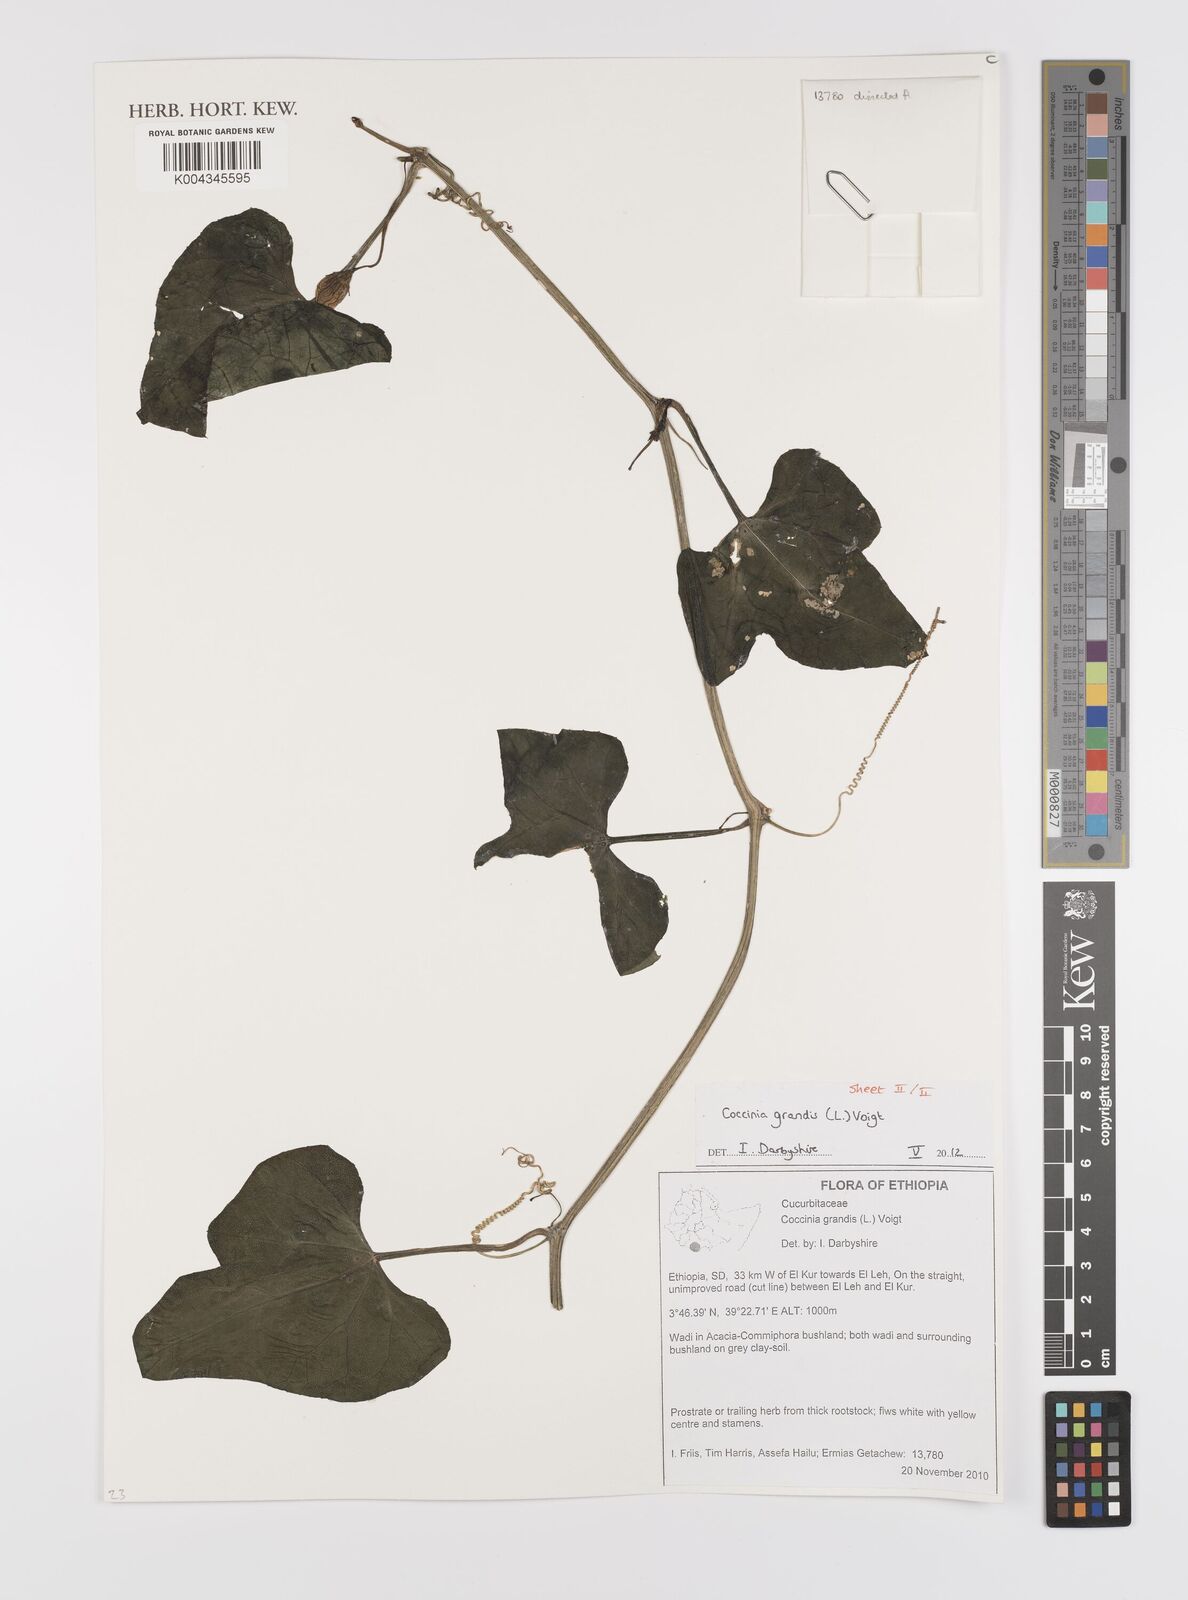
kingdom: Plantae
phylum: Tracheophyta
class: Magnoliopsida
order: Cucurbitales
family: Cucurbitaceae
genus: Coccinia
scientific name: Coccinia grandis
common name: Ivy gourd
